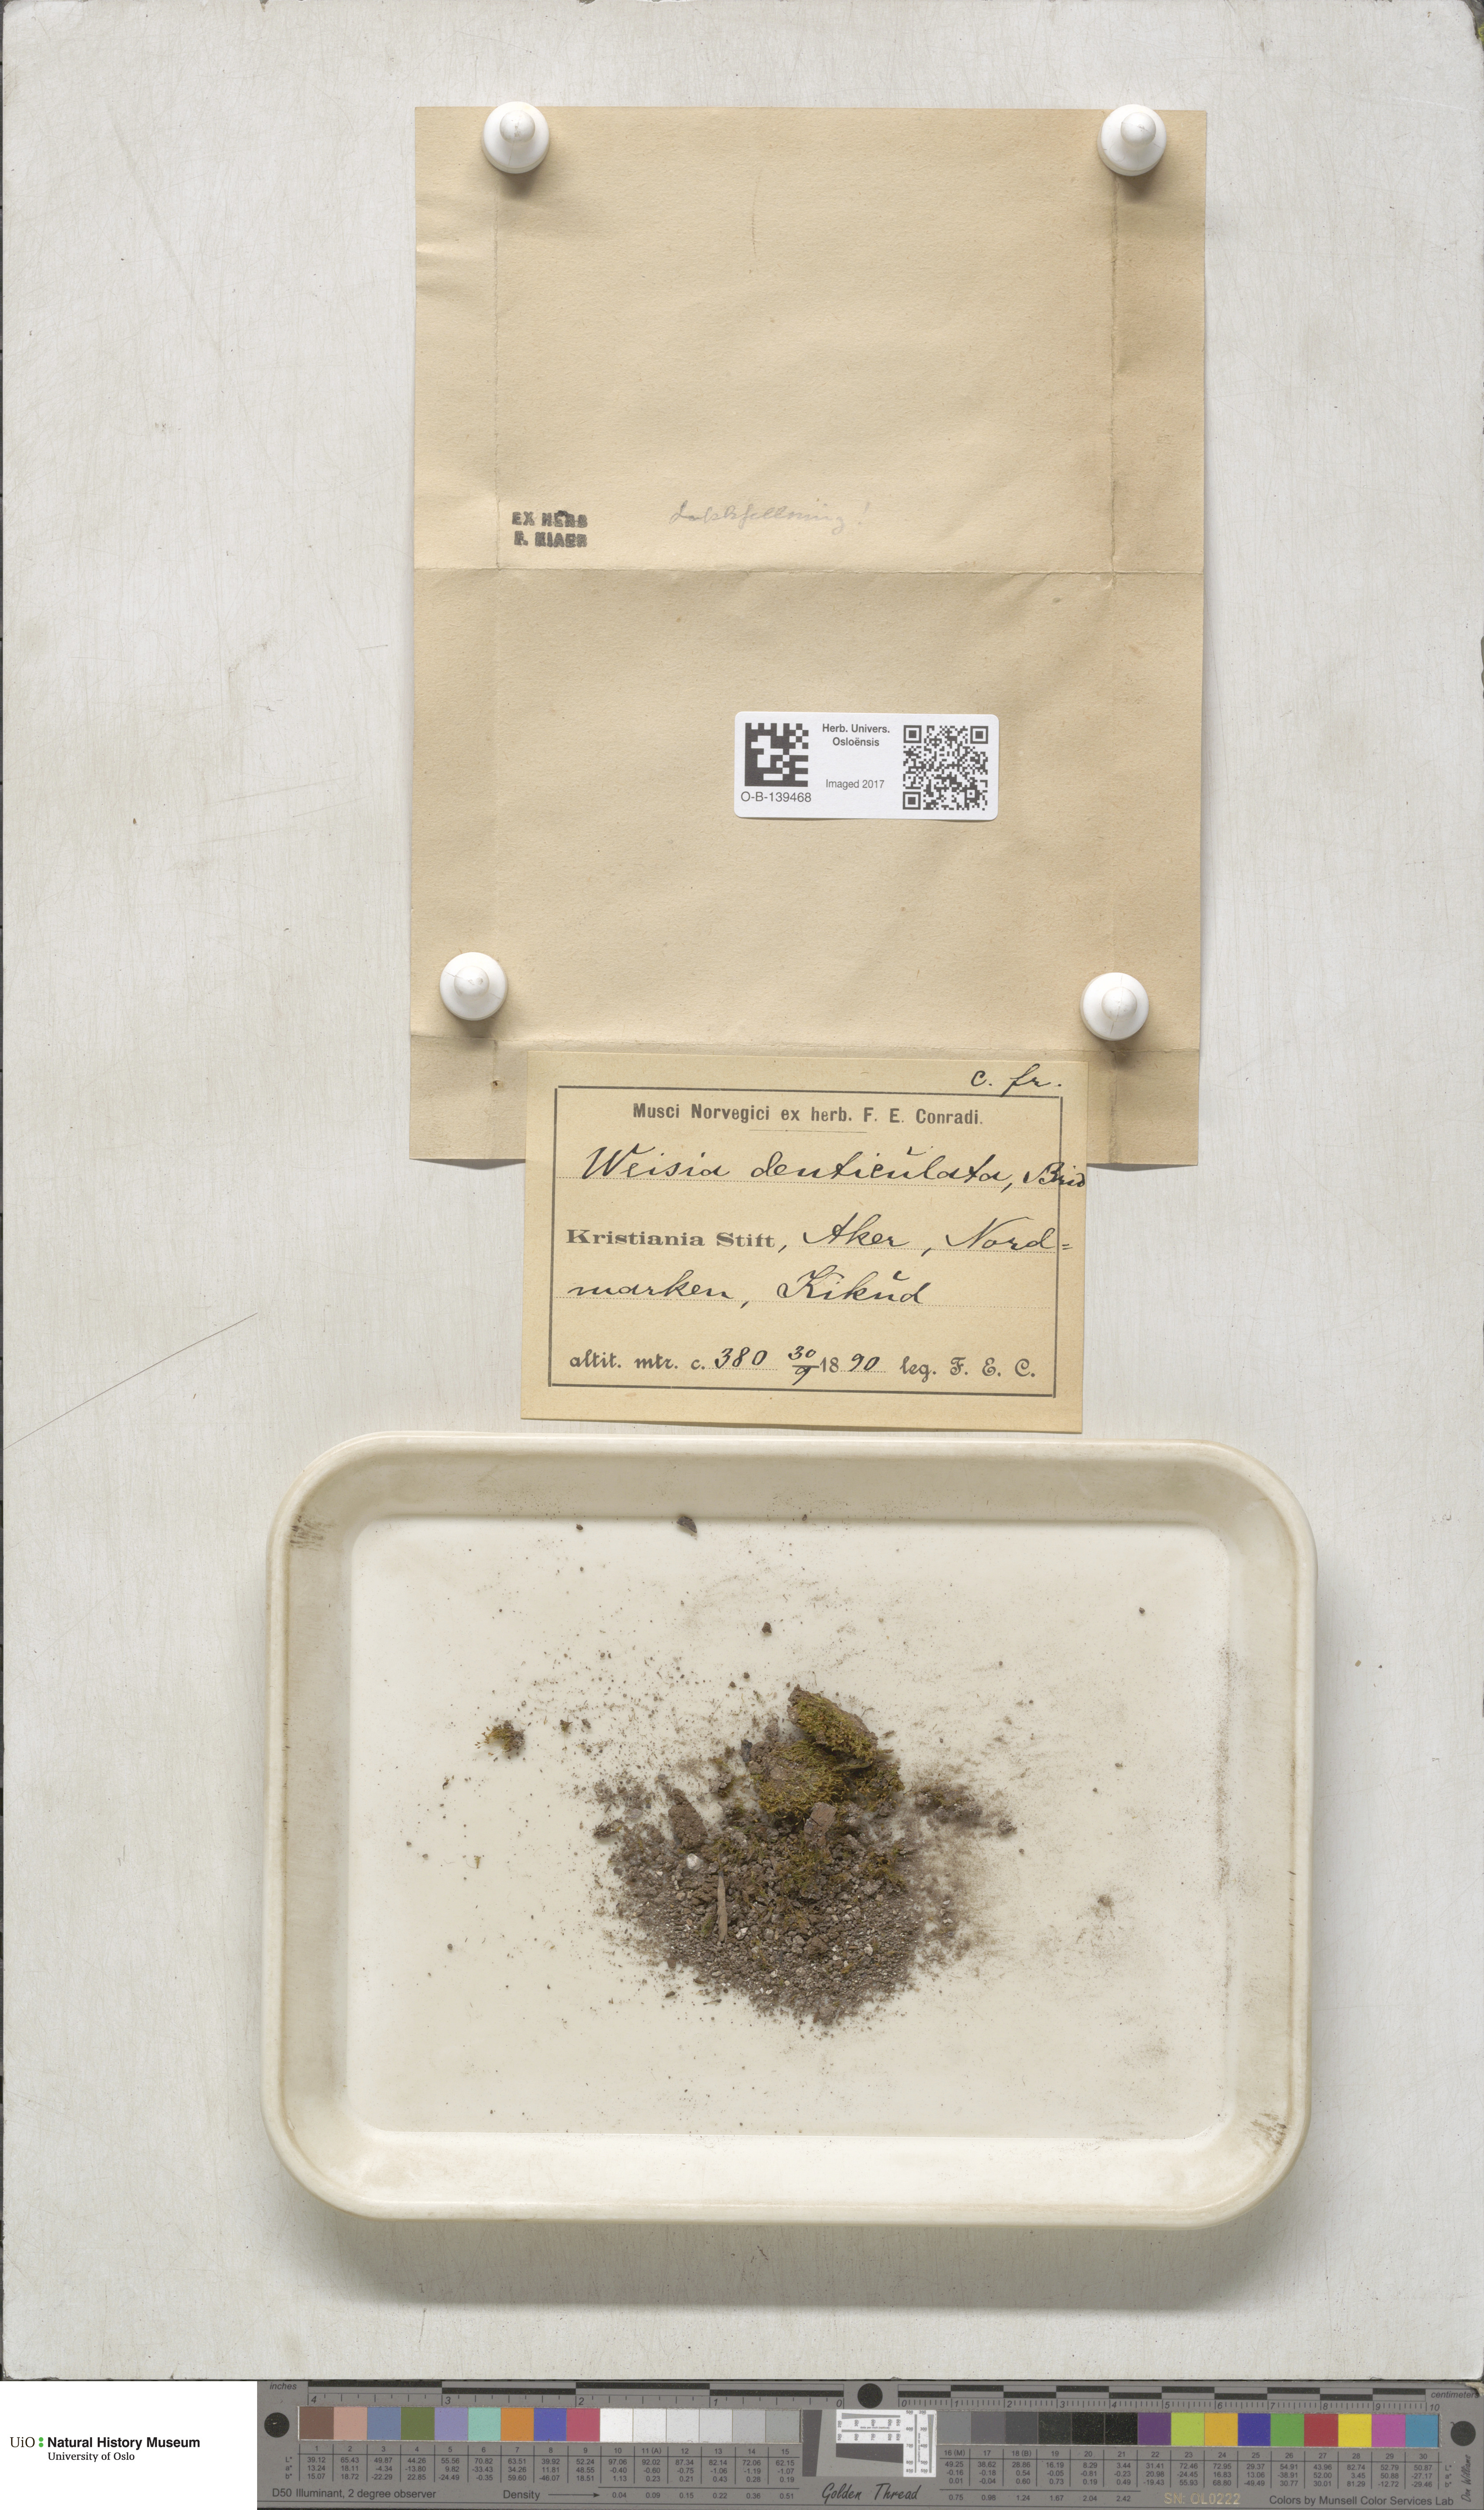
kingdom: Plantae
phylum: Bryophyta
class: Bryopsida
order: Dicranales
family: Rhabdoweisiaceae
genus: Rhabdoweisia
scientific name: Rhabdoweisia crispata
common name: Fine-toothed streak moss
